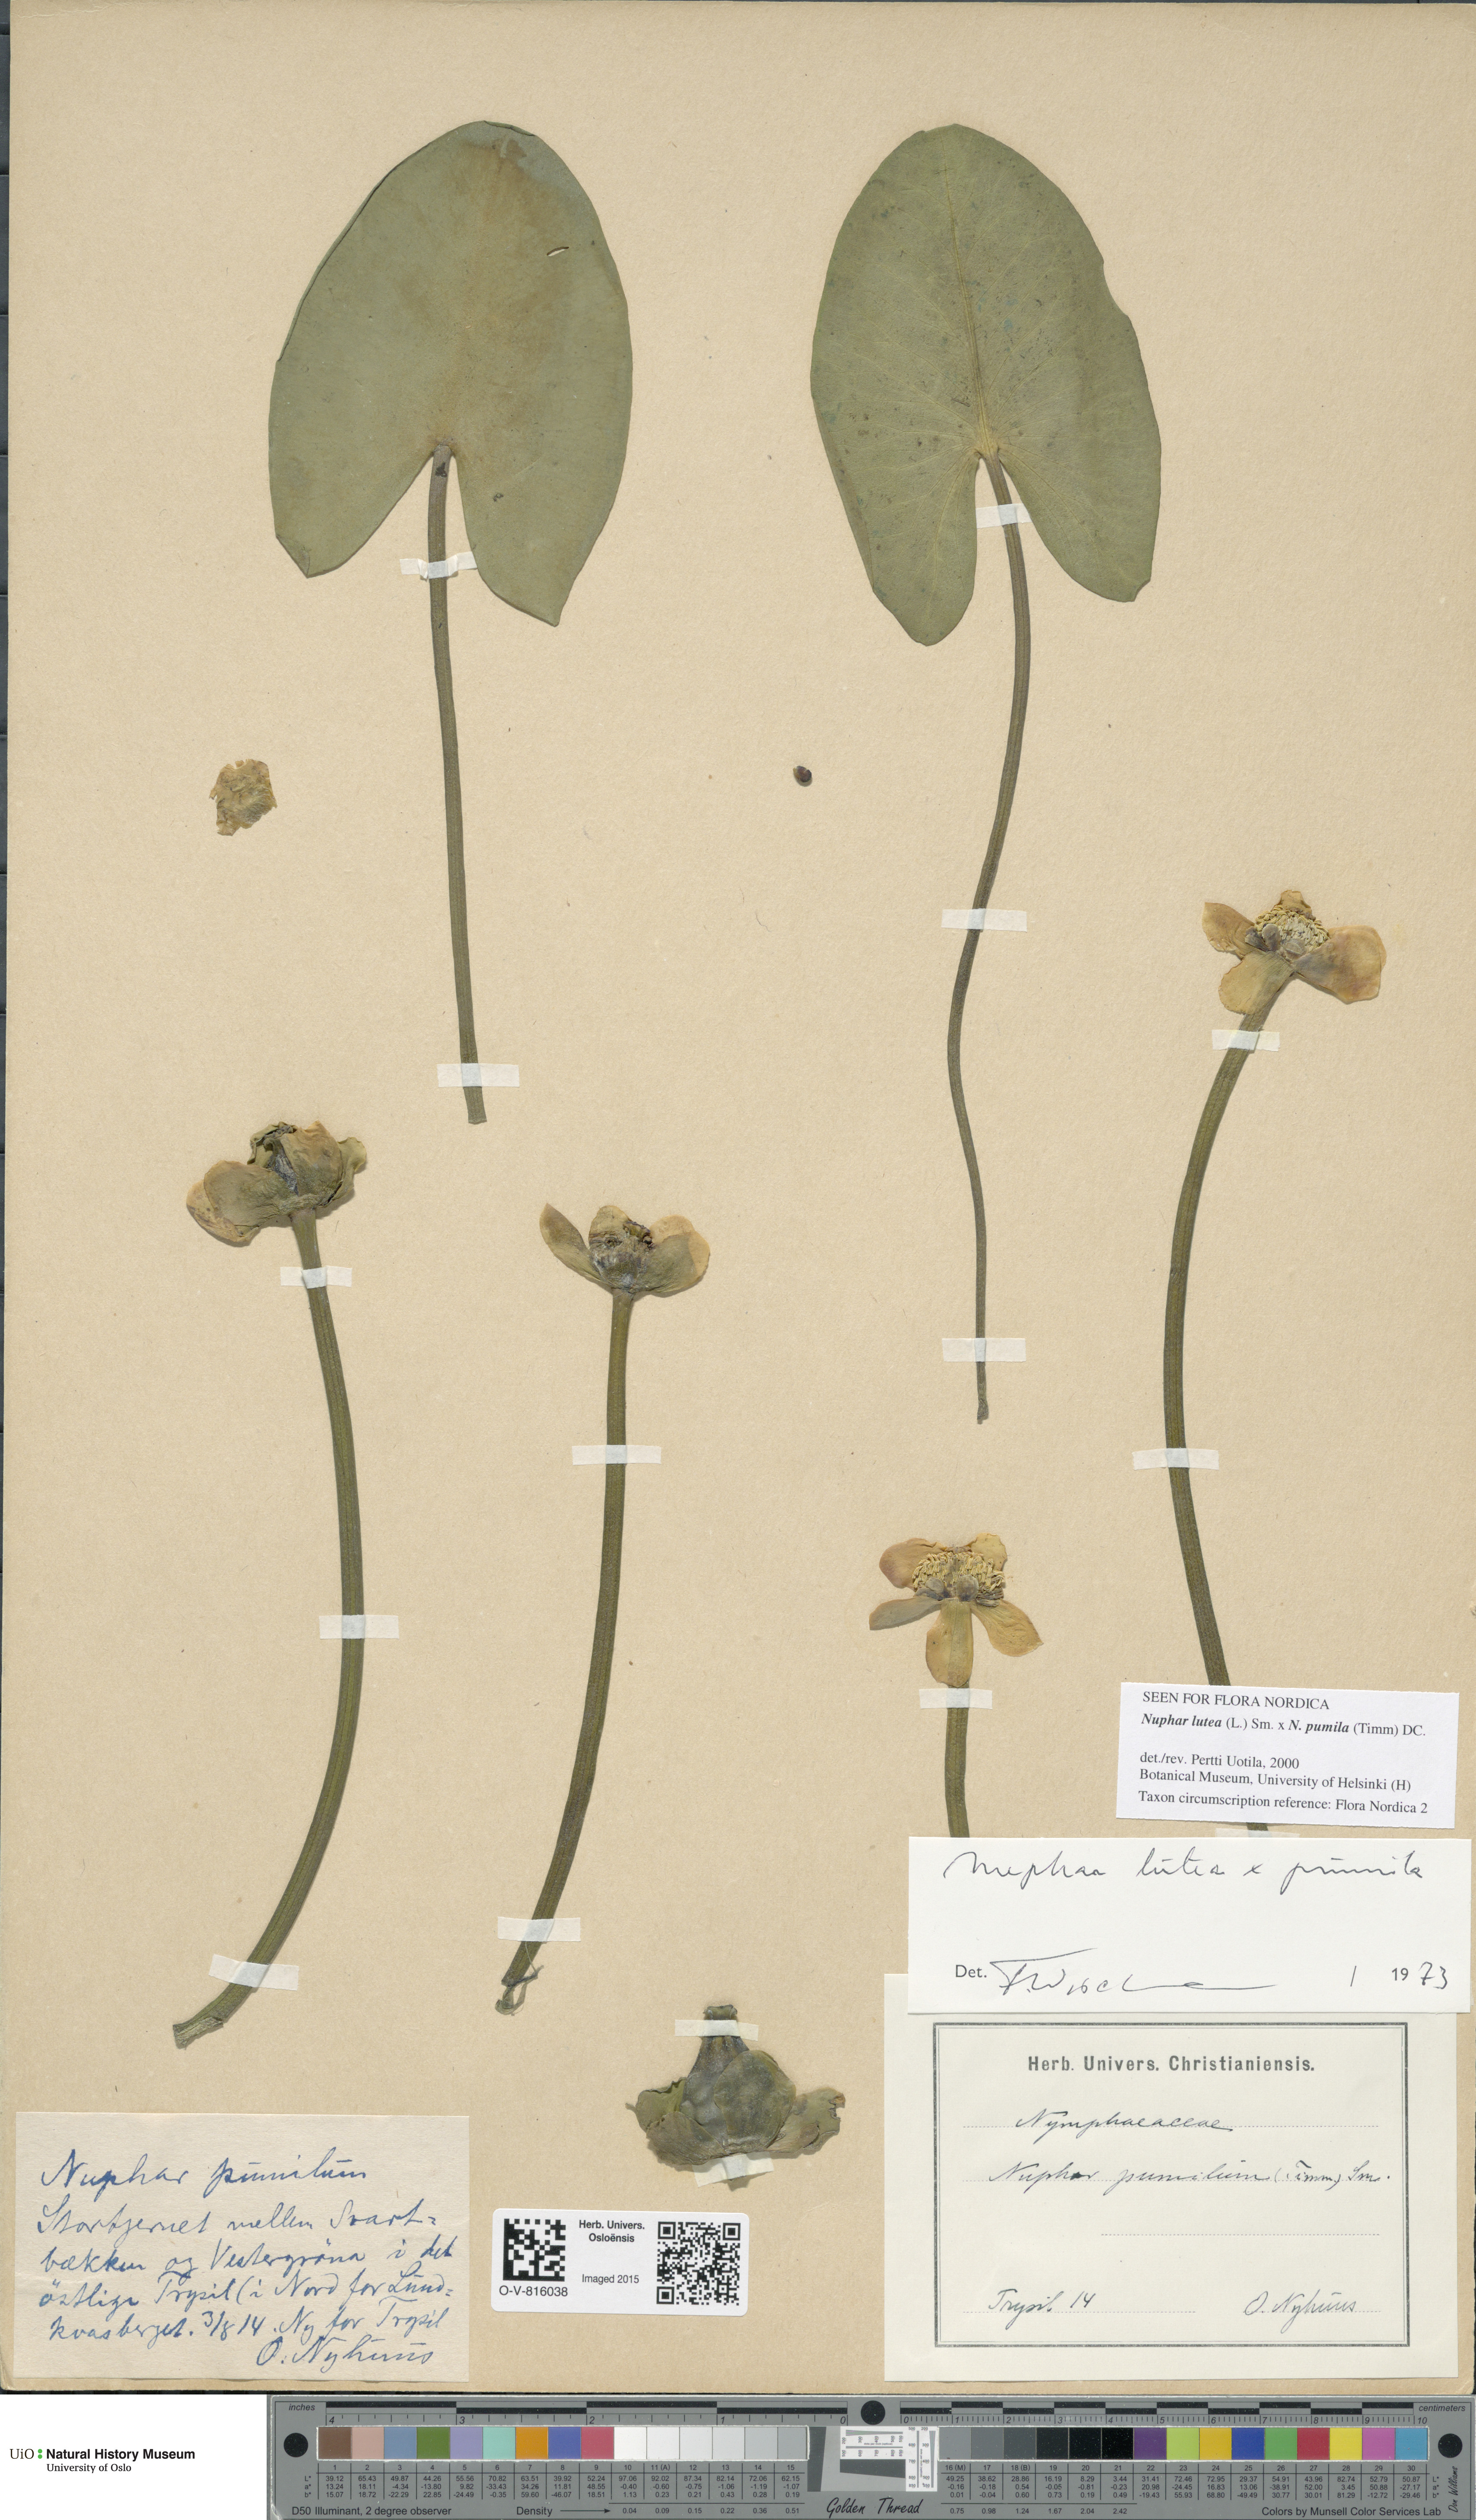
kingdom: Plantae
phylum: Tracheophyta
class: Magnoliopsida
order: Nymphaeales
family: Nymphaeaceae
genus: Nuphar
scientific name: Nuphar
